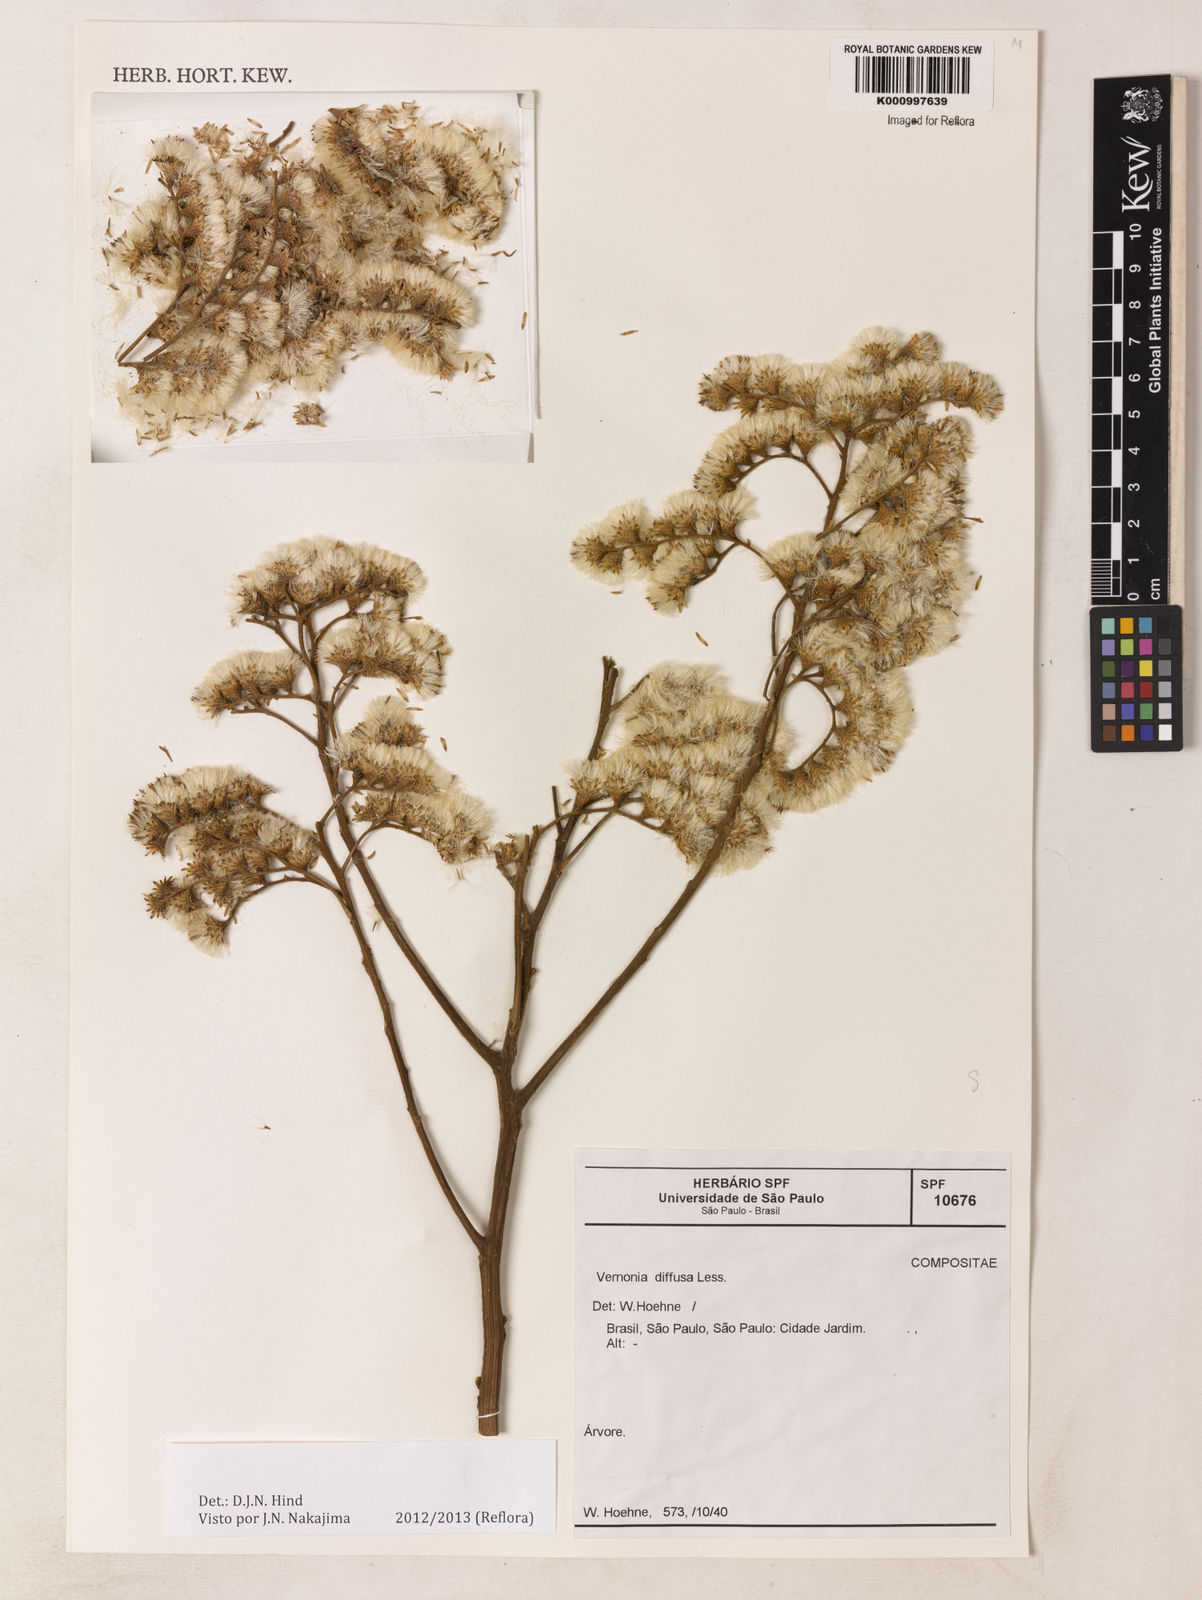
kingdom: Plantae
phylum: Tracheophyta
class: Magnoliopsida
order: Asterales
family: Asteraceae
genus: Vernonanthura
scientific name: Vernonanthura divaricata
